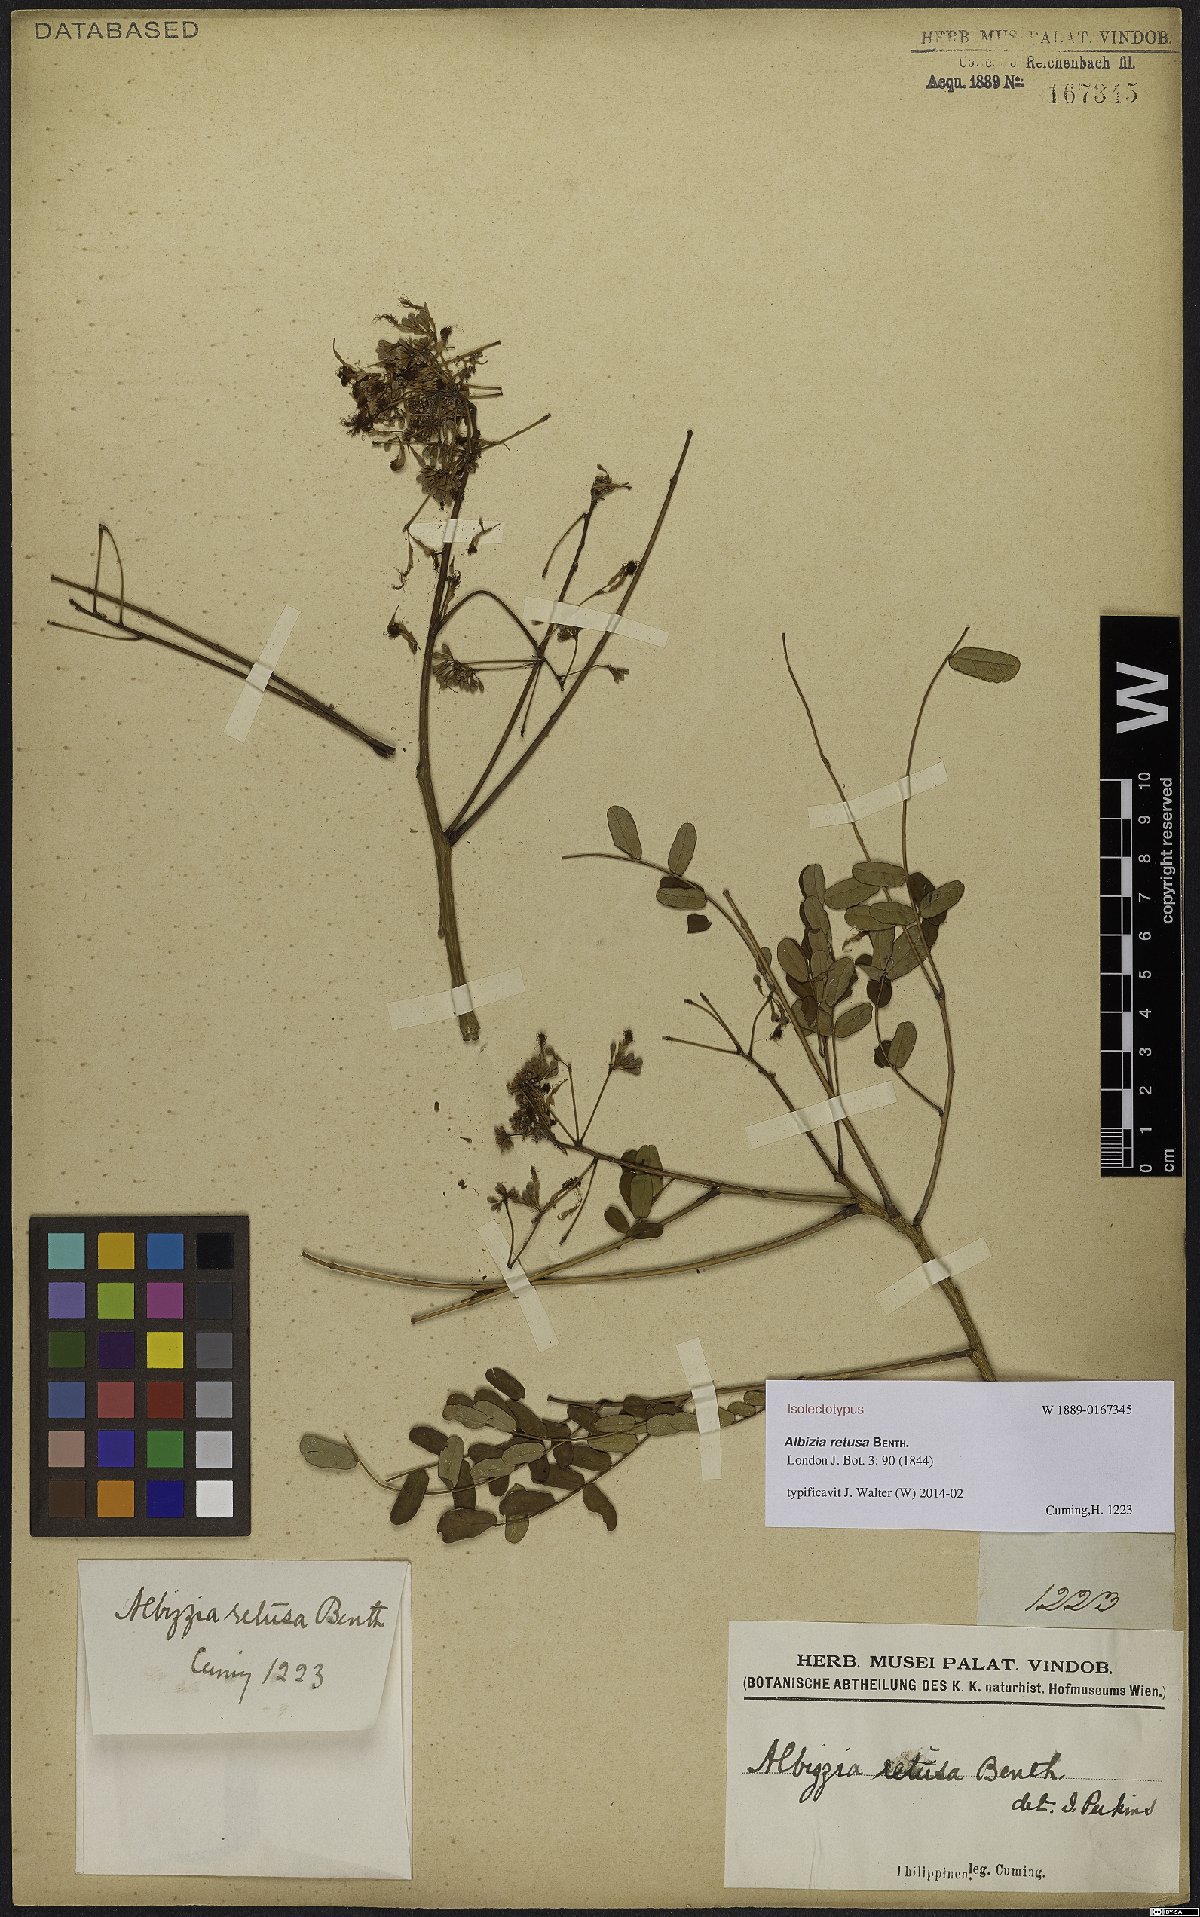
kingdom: Plantae
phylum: Tracheophyta
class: Magnoliopsida
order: Fabales
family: Fabaceae
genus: Albizia
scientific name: Albizia retusa
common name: Sea albizia
